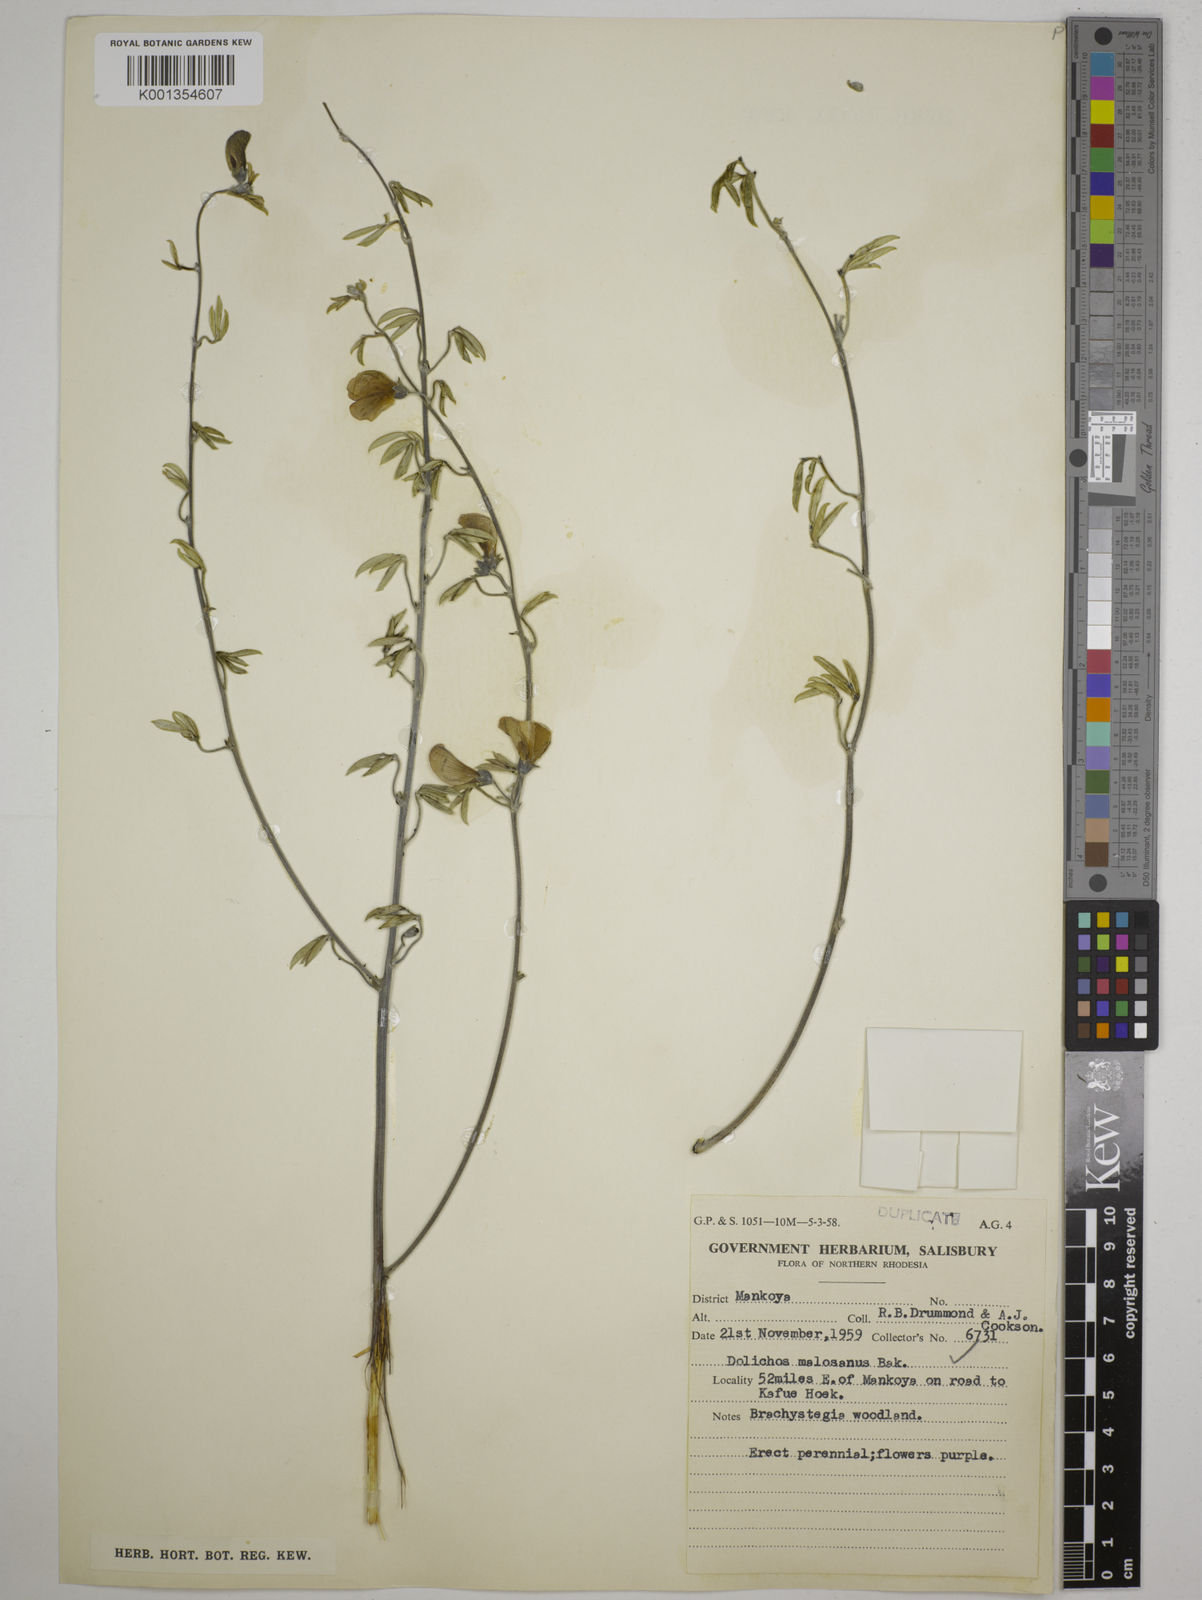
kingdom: Plantae
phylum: Tracheophyta
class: Magnoliopsida
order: Fabales
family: Fabaceae
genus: Dolichos
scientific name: Dolichos kilimandscharicus
